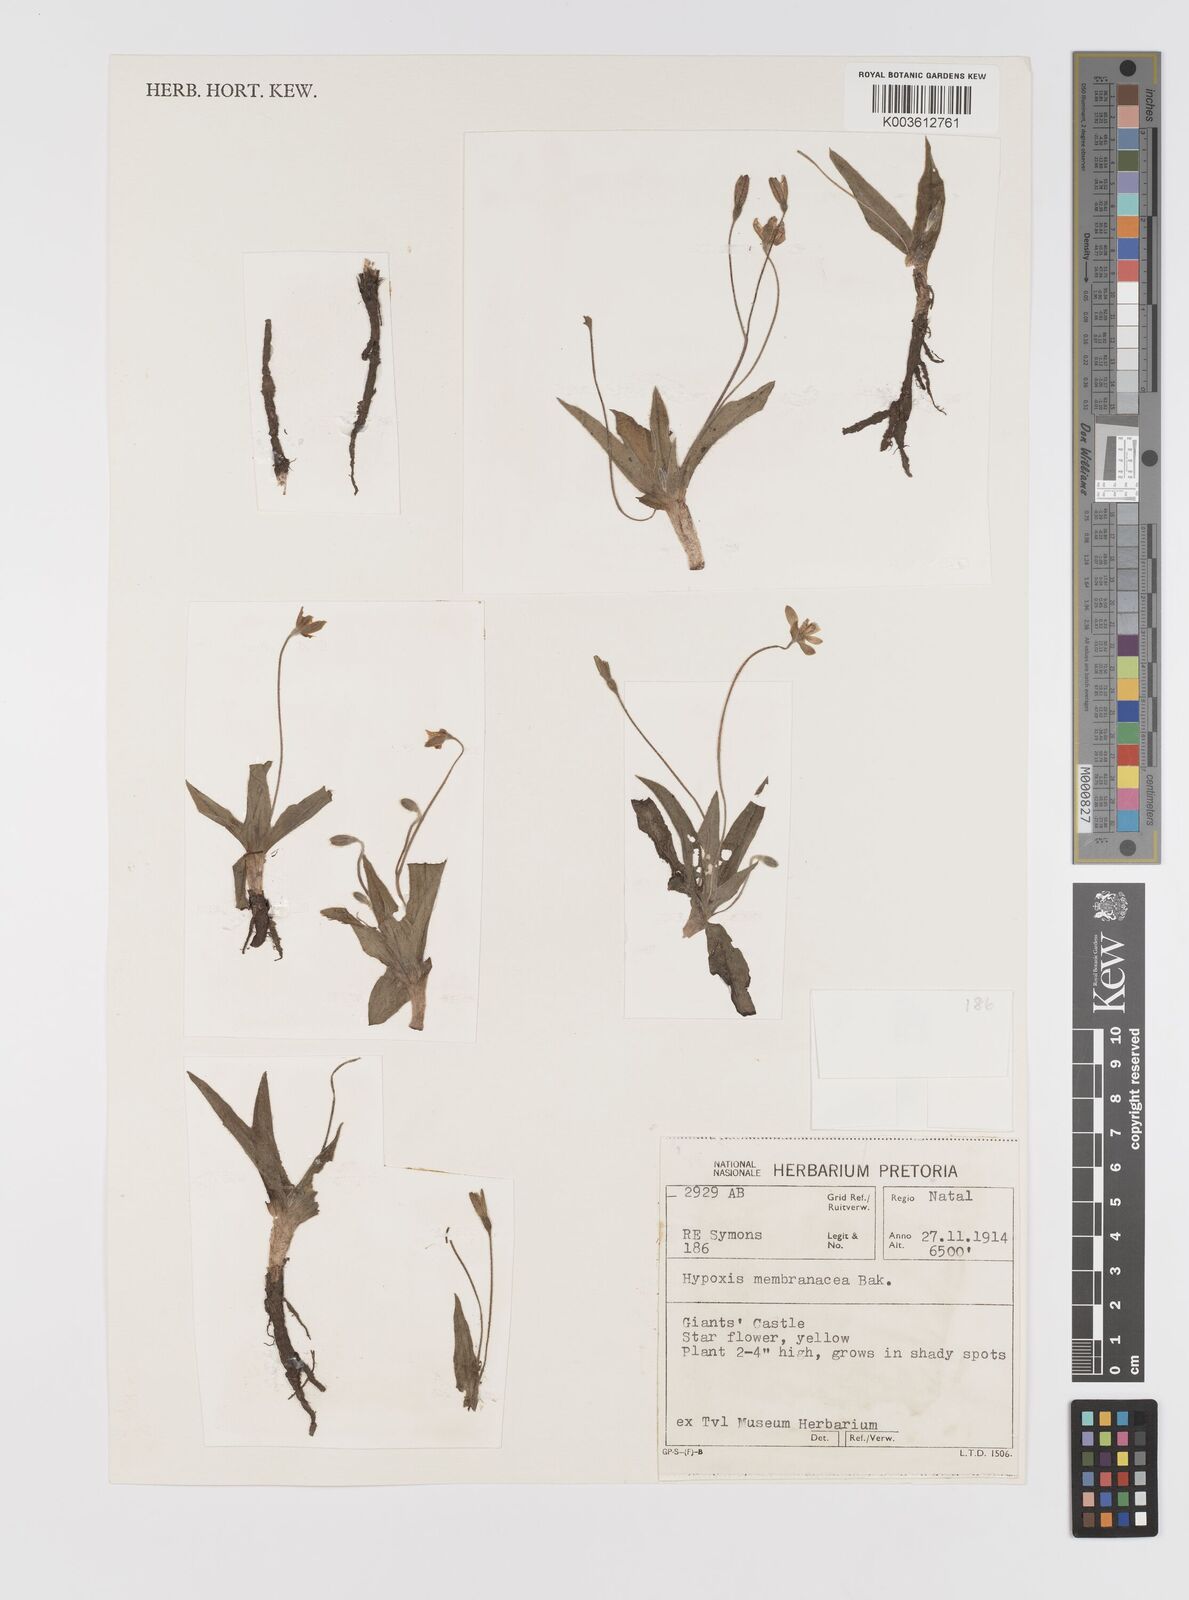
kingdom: Plantae
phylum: Tracheophyta
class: Liliopsida
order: Asparagales
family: Hypoxidaceae
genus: Hypoxis
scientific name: Hypoxis parvula
